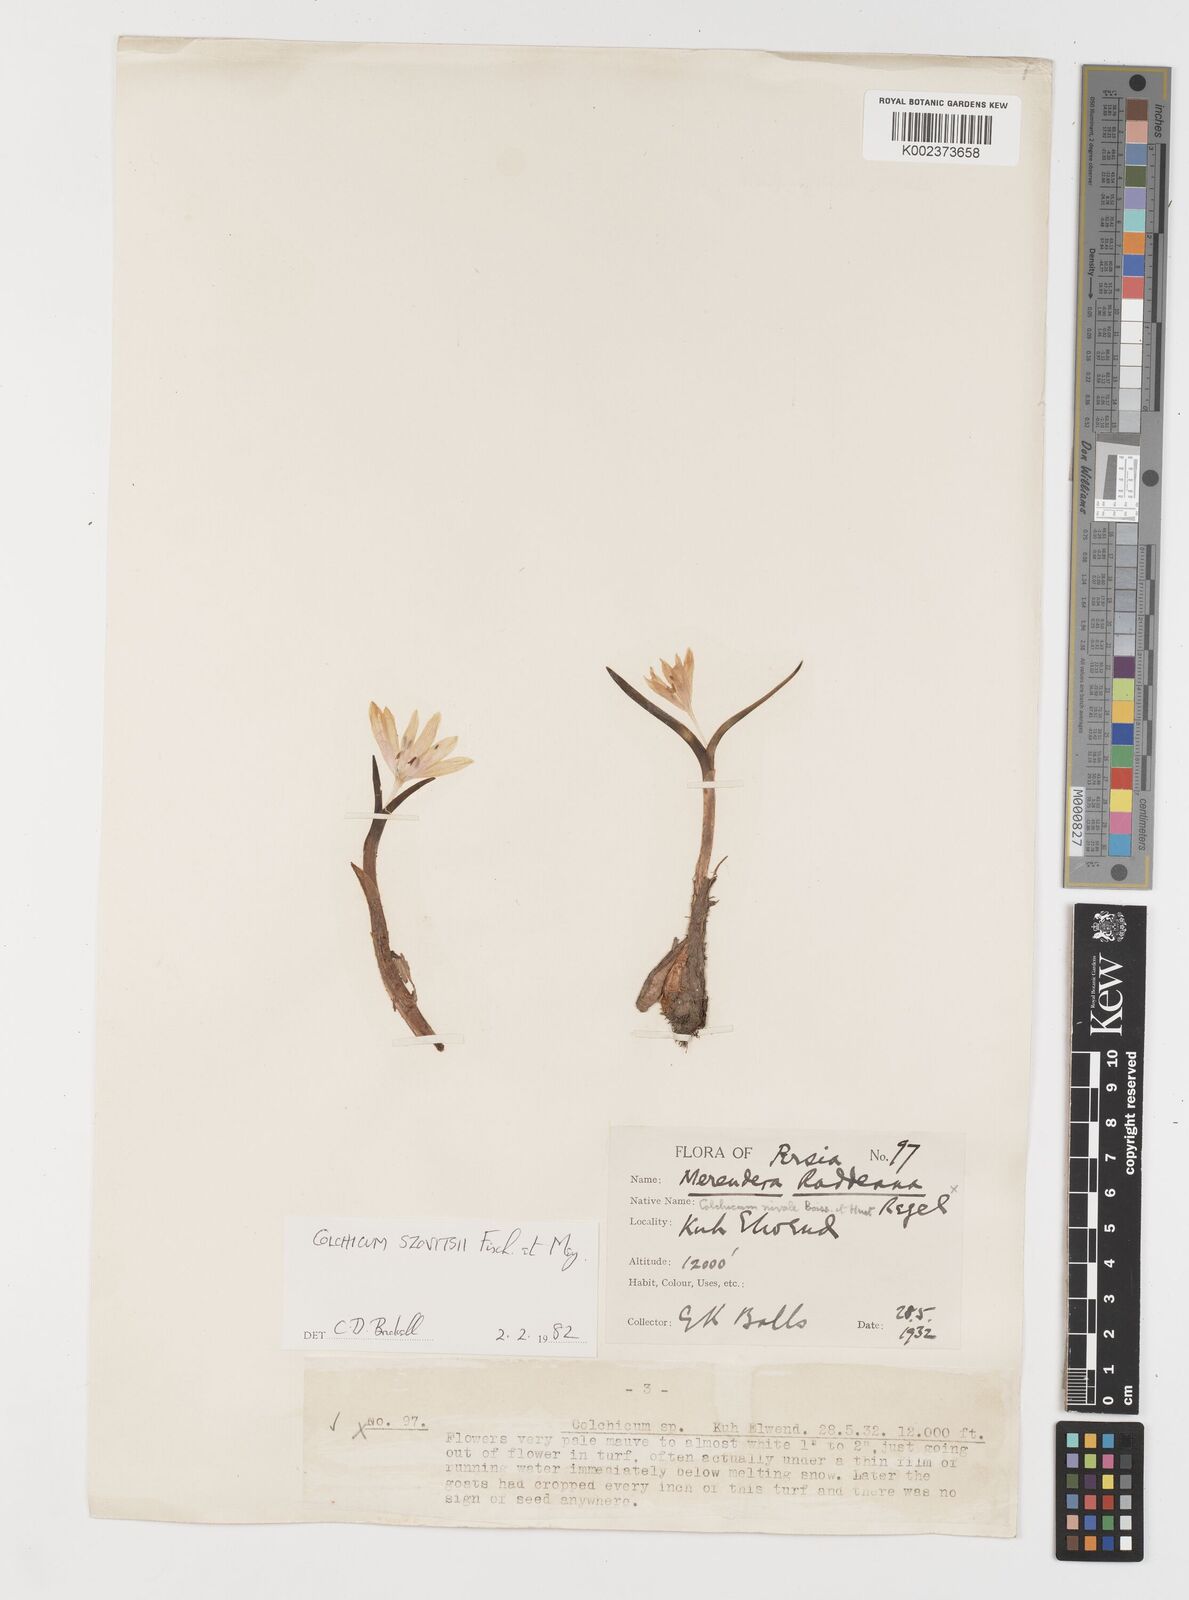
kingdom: Plantae
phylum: Tracheophyta
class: Liliopsida
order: Liliales
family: Colchicaceae
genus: Colchicum
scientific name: Colchicum szovitsii
